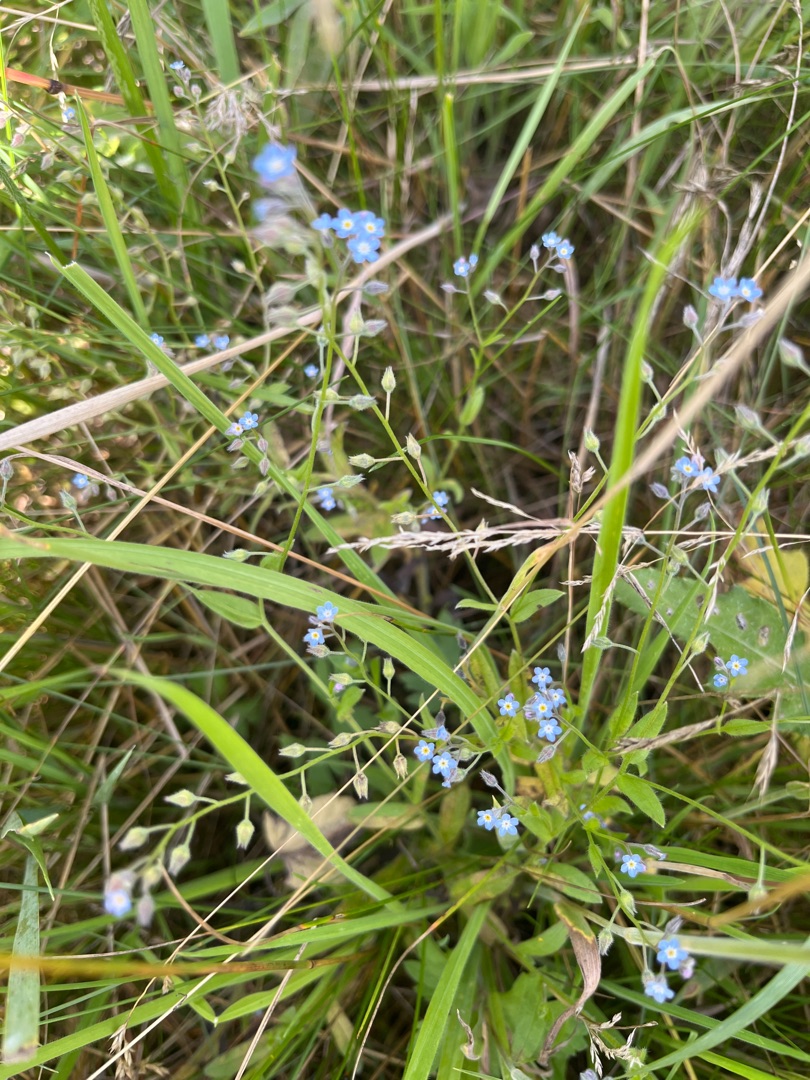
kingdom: Plantae
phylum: Tracheophyta
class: Magnoliopsida
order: Boraginales
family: Boraginaceae
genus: Myosotis
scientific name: Myosotis arvensis
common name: Mark-forglemmigej
